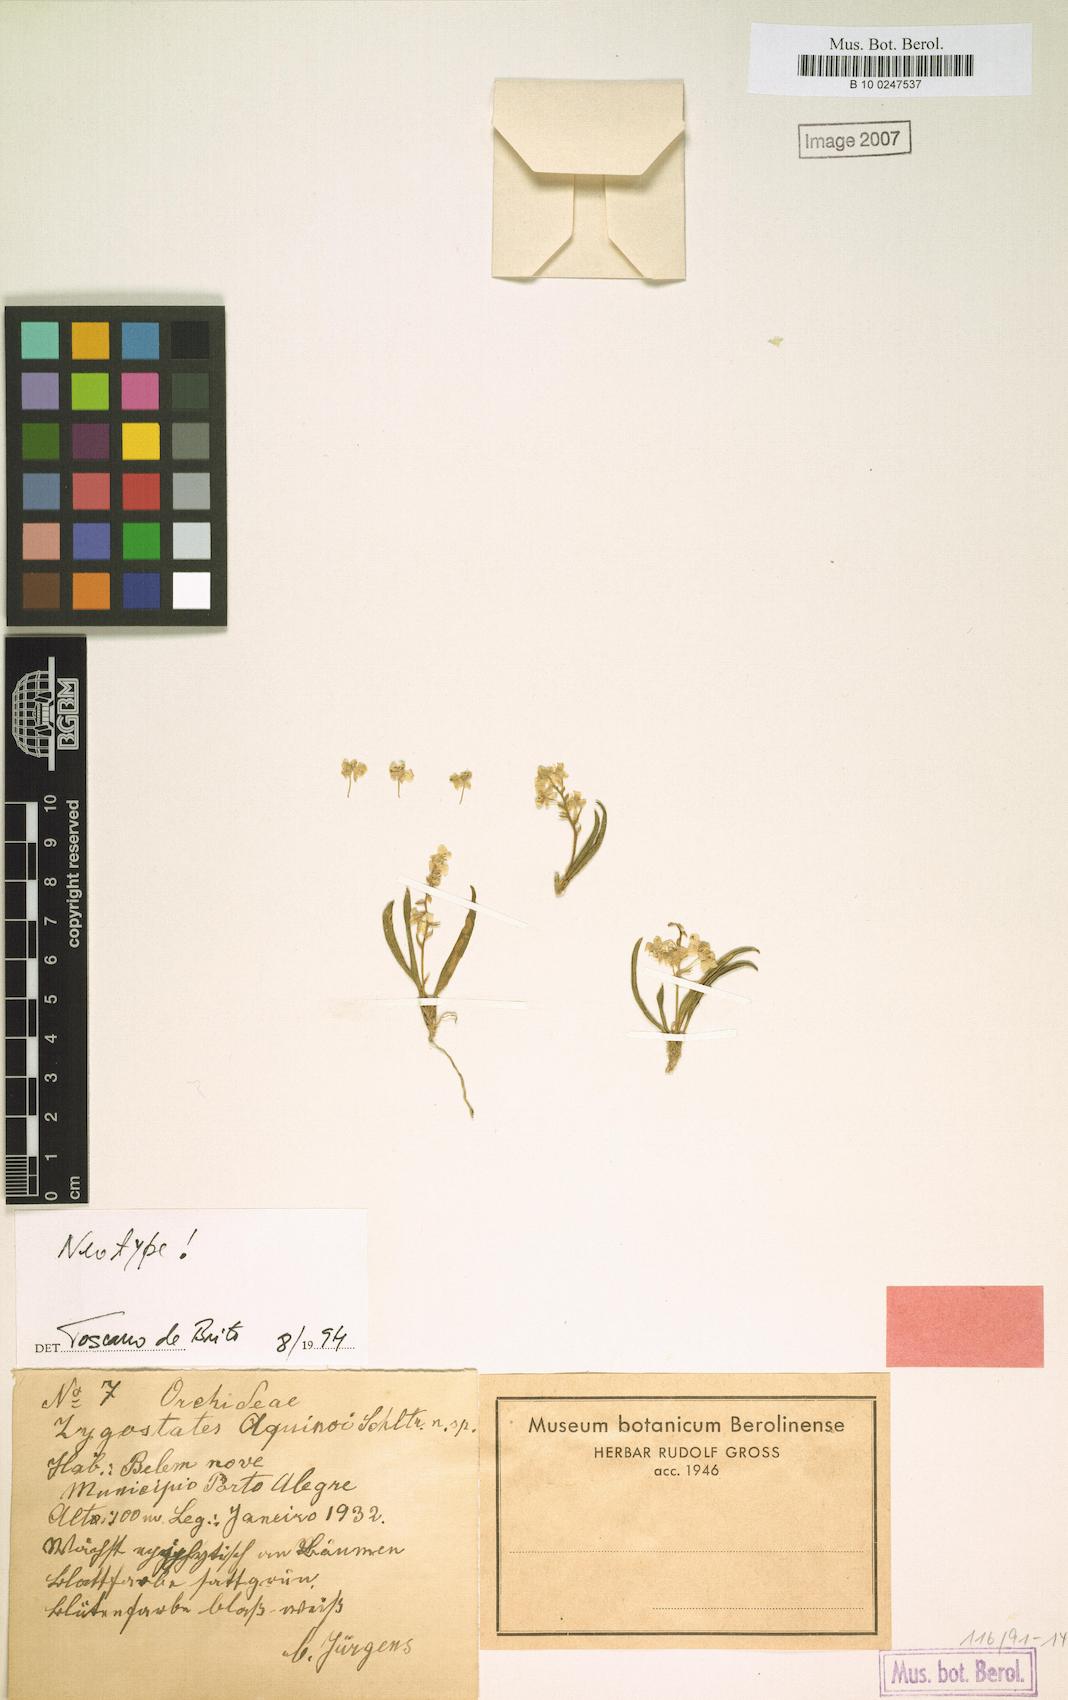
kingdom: Plantae
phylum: Tracheophyta
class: Liliopsida
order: Asparagales
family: Orchidaceae
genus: Zygostates
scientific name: Zygostates alleniana
